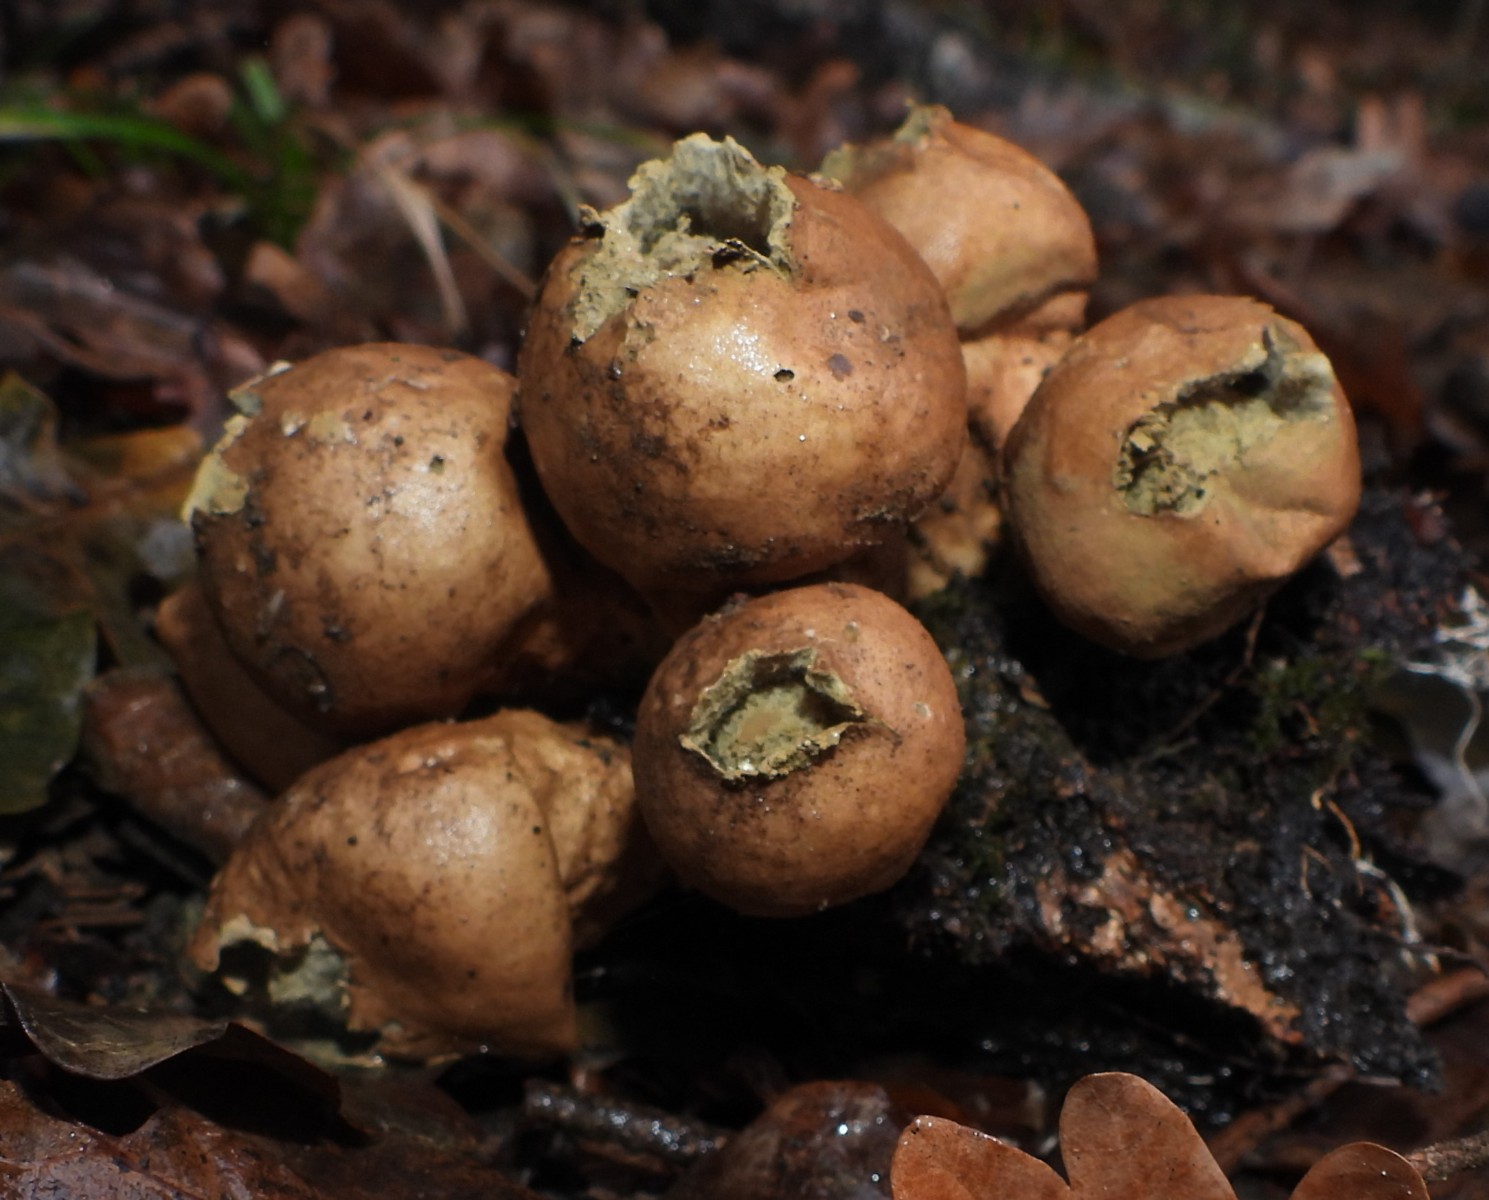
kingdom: Fungi
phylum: Basidiomycota
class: Agaricomycetes
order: Agaricales
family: Lycoperdaceae
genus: Apioperdon
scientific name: Apioperdon pyriforme
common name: pære-støvbold
